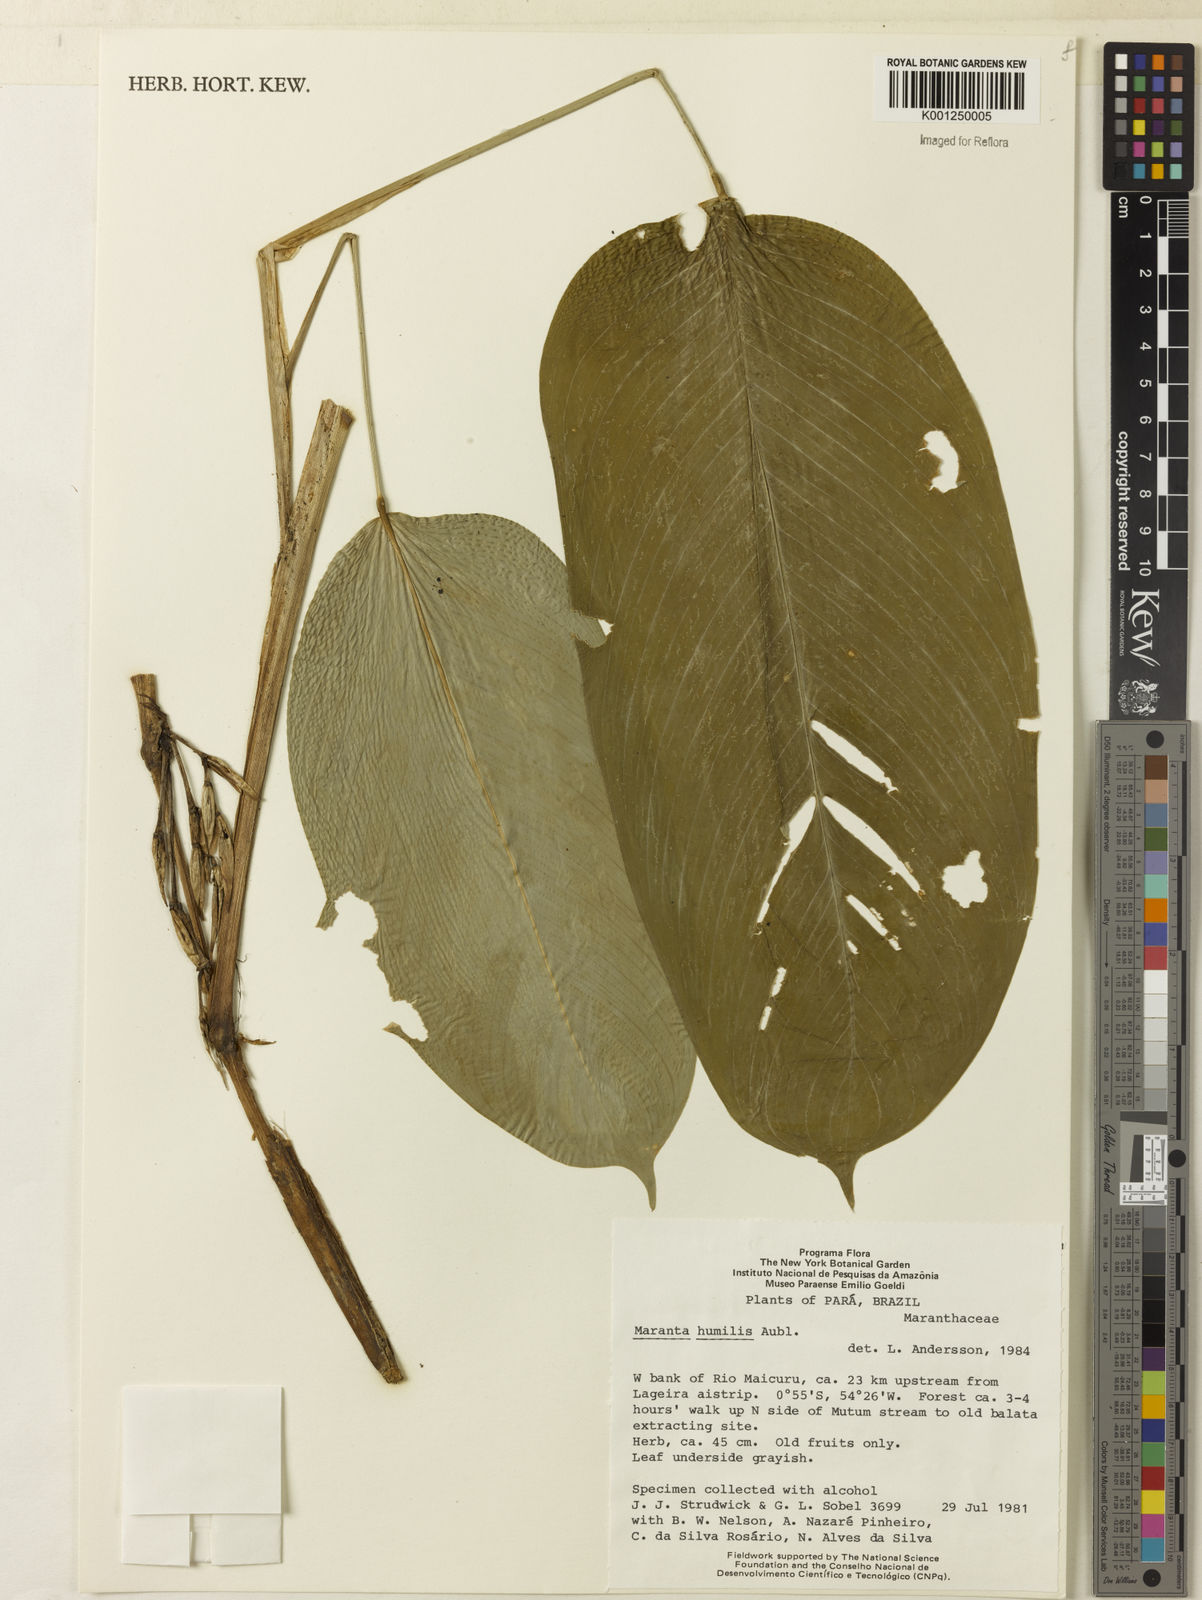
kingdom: Plantae
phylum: Tracheophyta
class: Liliopsida
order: Zingiberales
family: Marantaceae
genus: Maranta
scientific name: Maranta humilis
